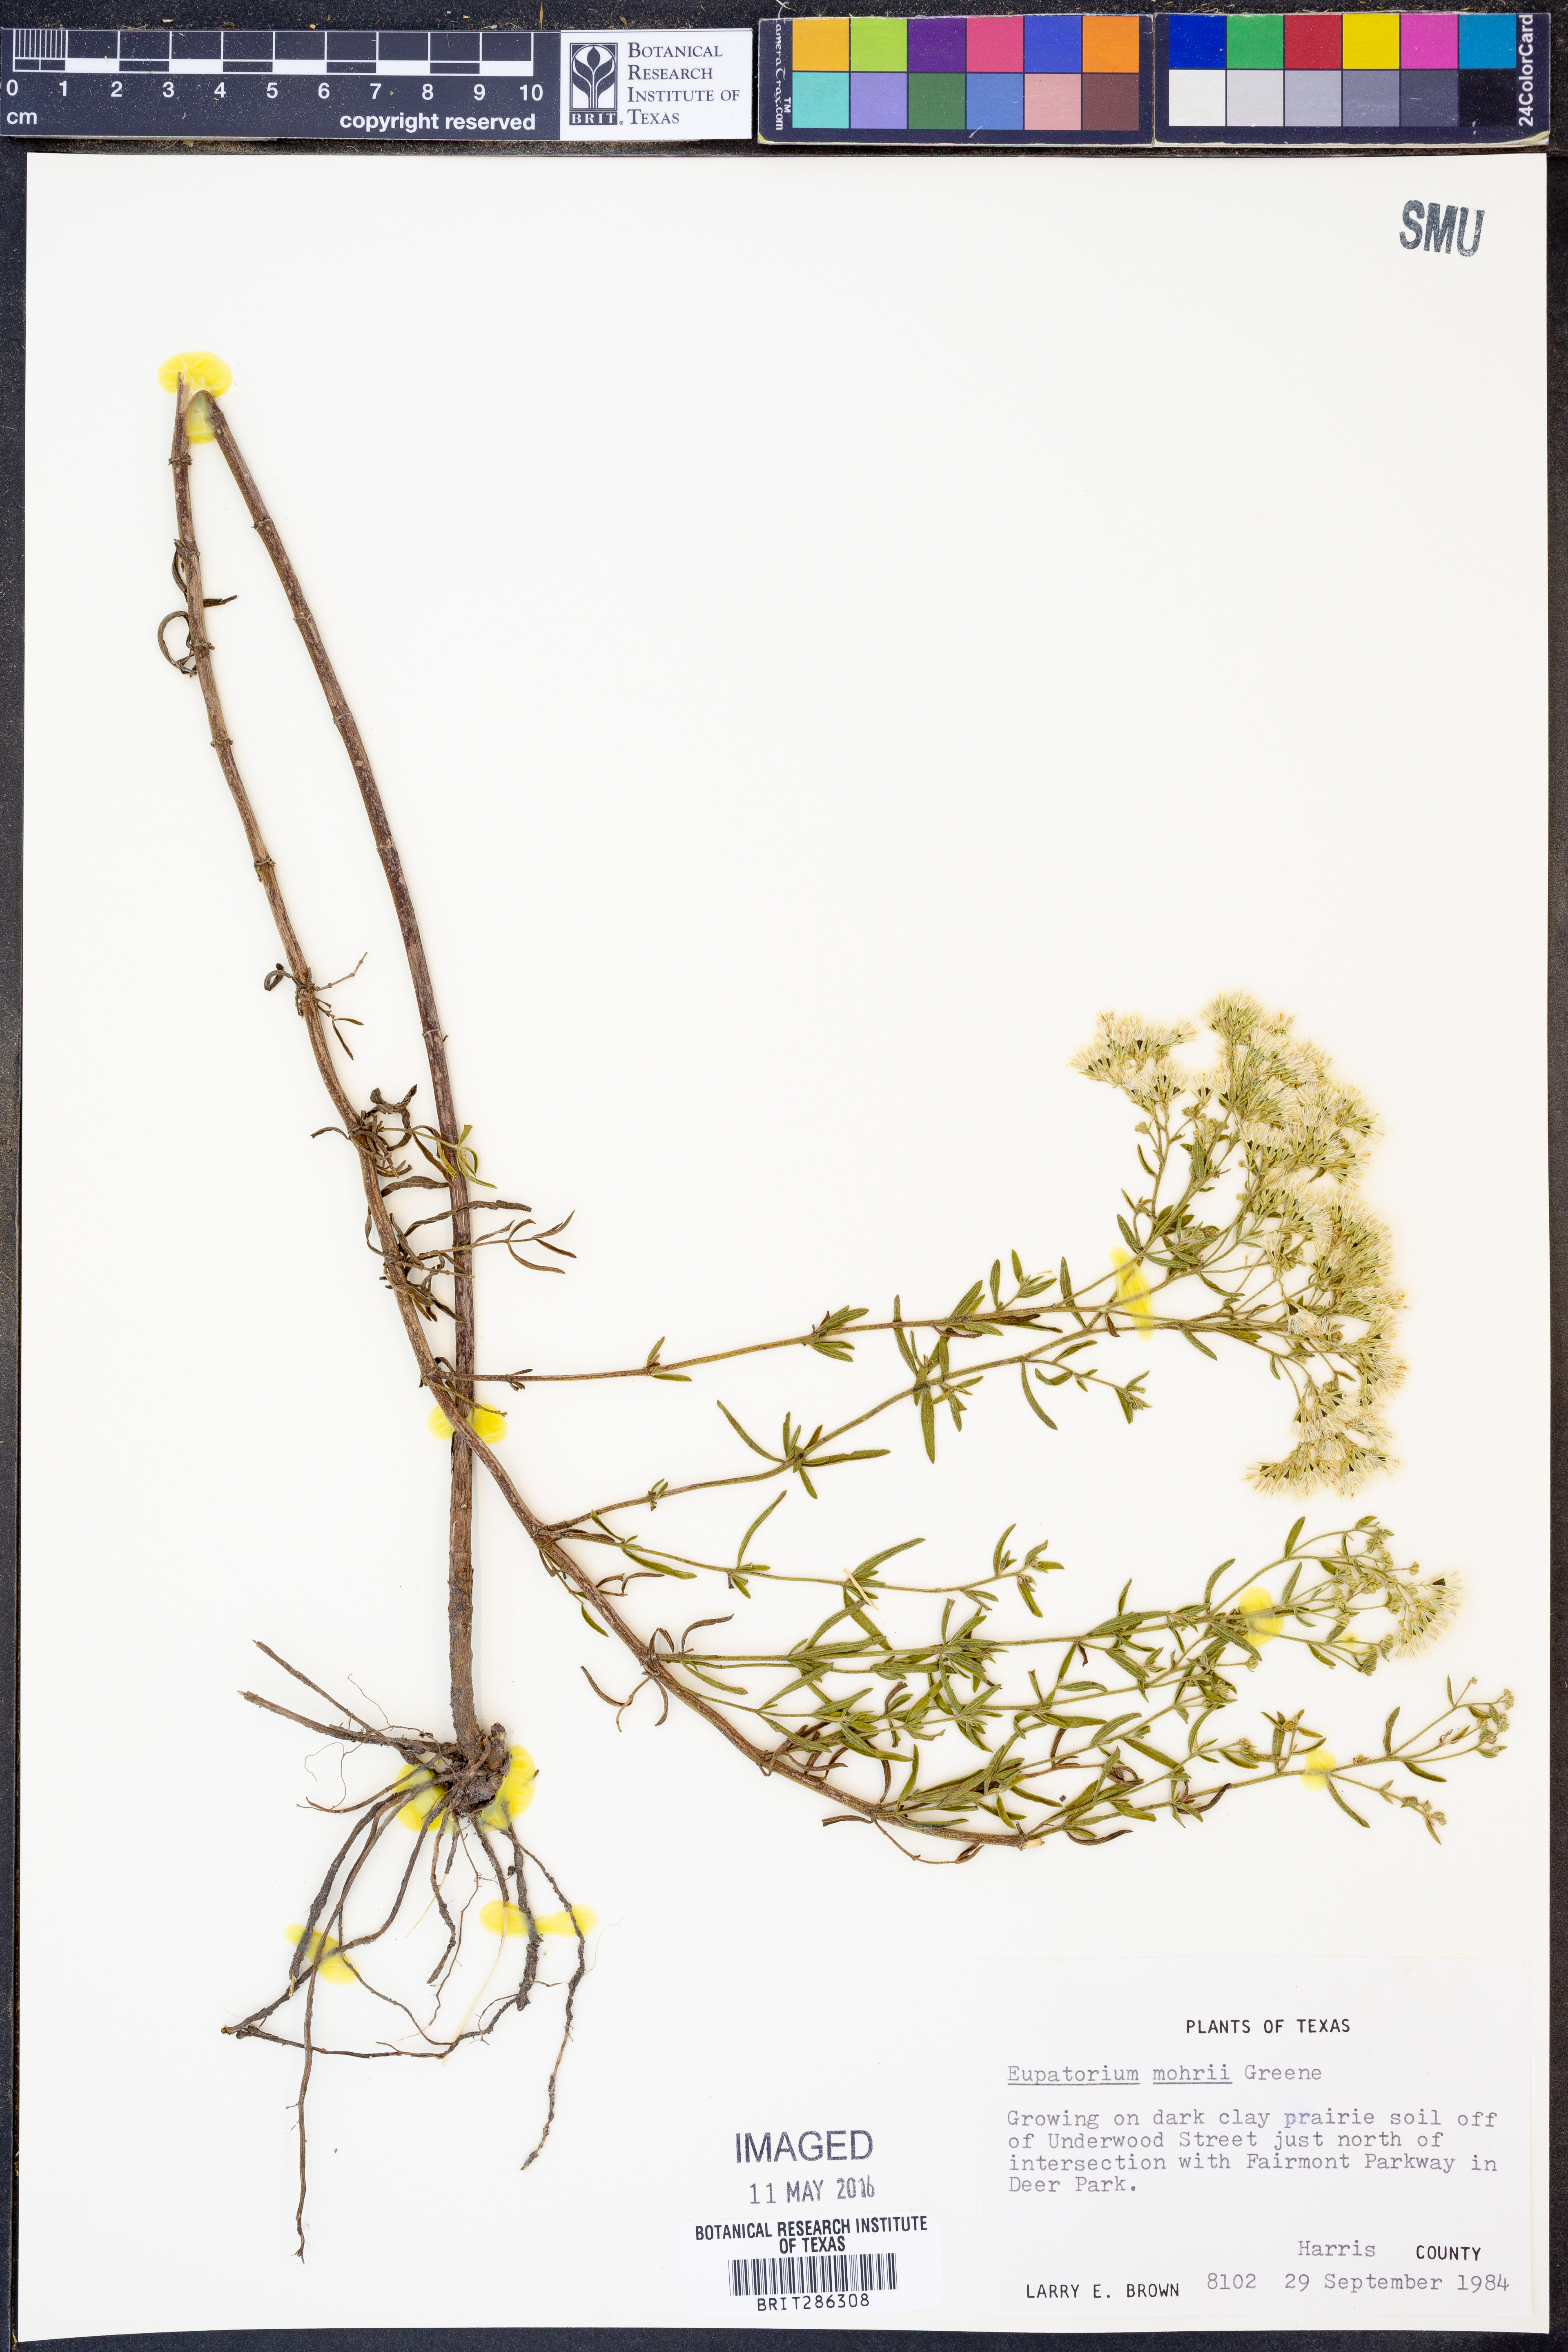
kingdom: Plantae
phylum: Tracheophyta
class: Magnoliopsida
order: Asterales
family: Asteraceae
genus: Eupatorium
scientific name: Eupatorium mohrii
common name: Mohr's thoroughwort
